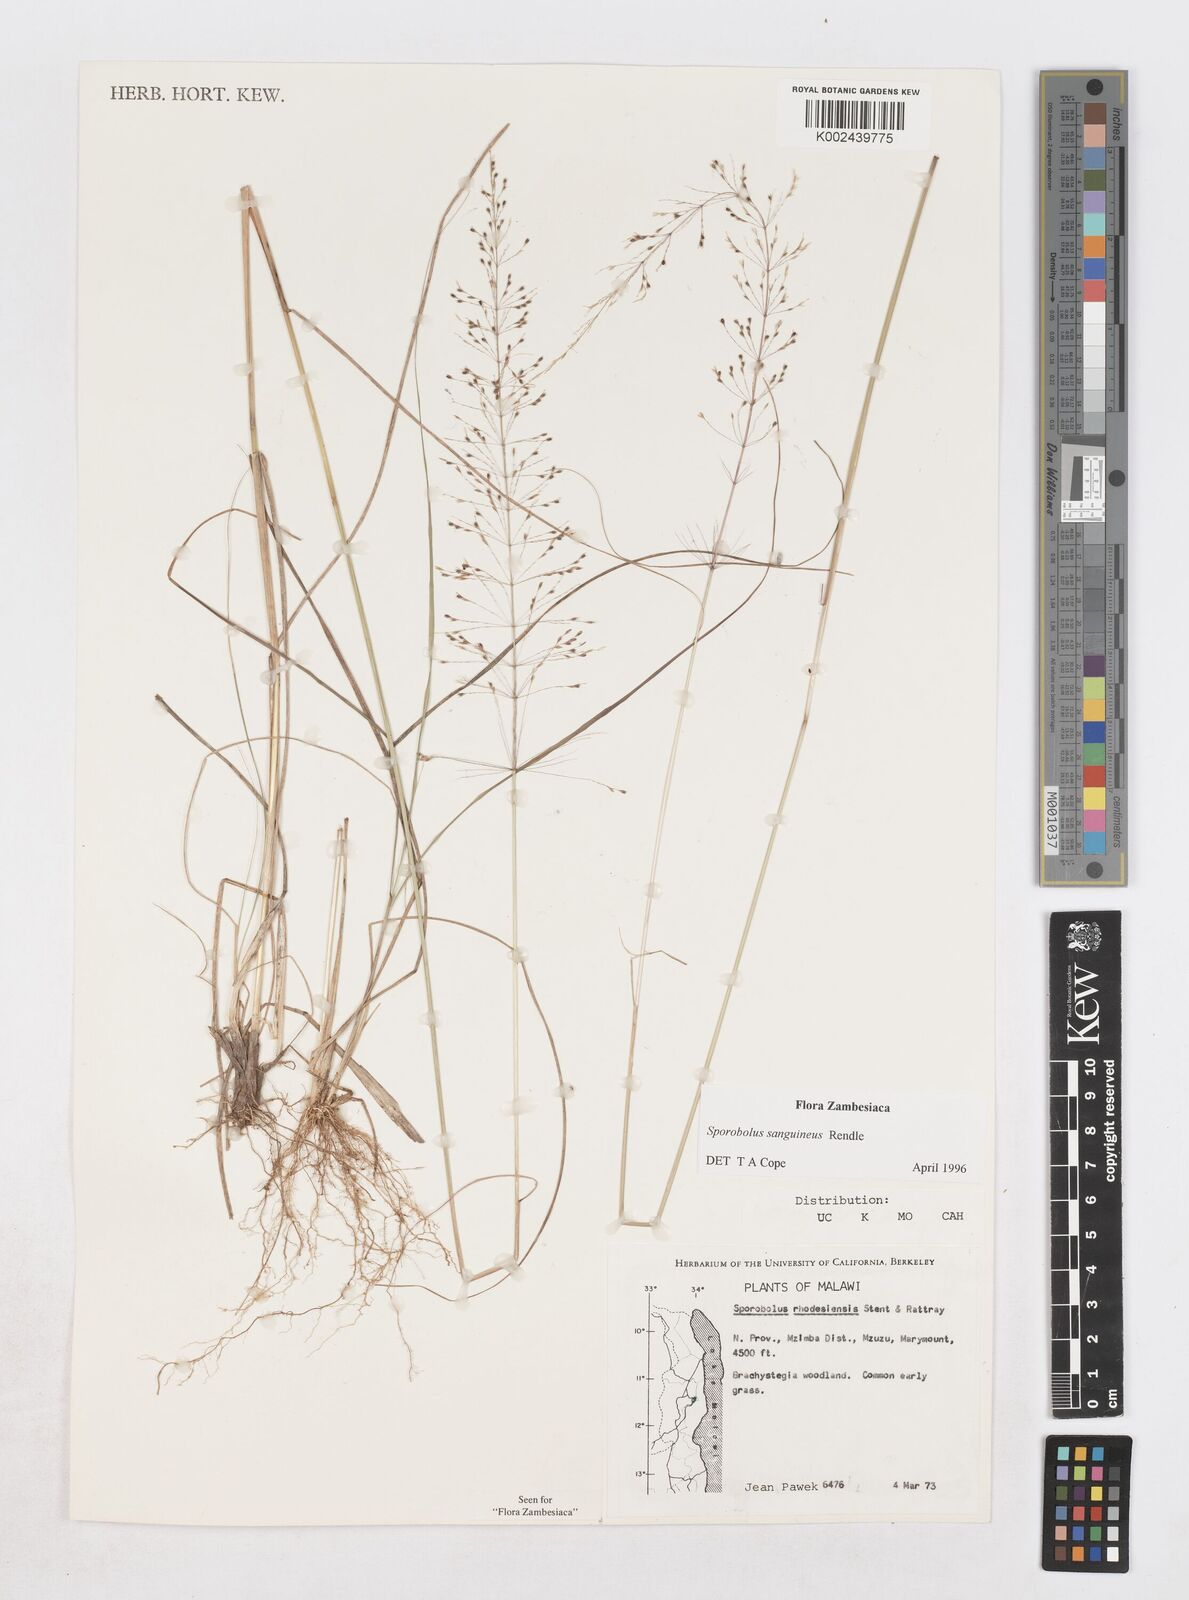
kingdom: Plantae
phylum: Tracheophyta
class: Liliopsida
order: Poales
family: Poaceae
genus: Sporobolus
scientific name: Sporobolus sanguineus
